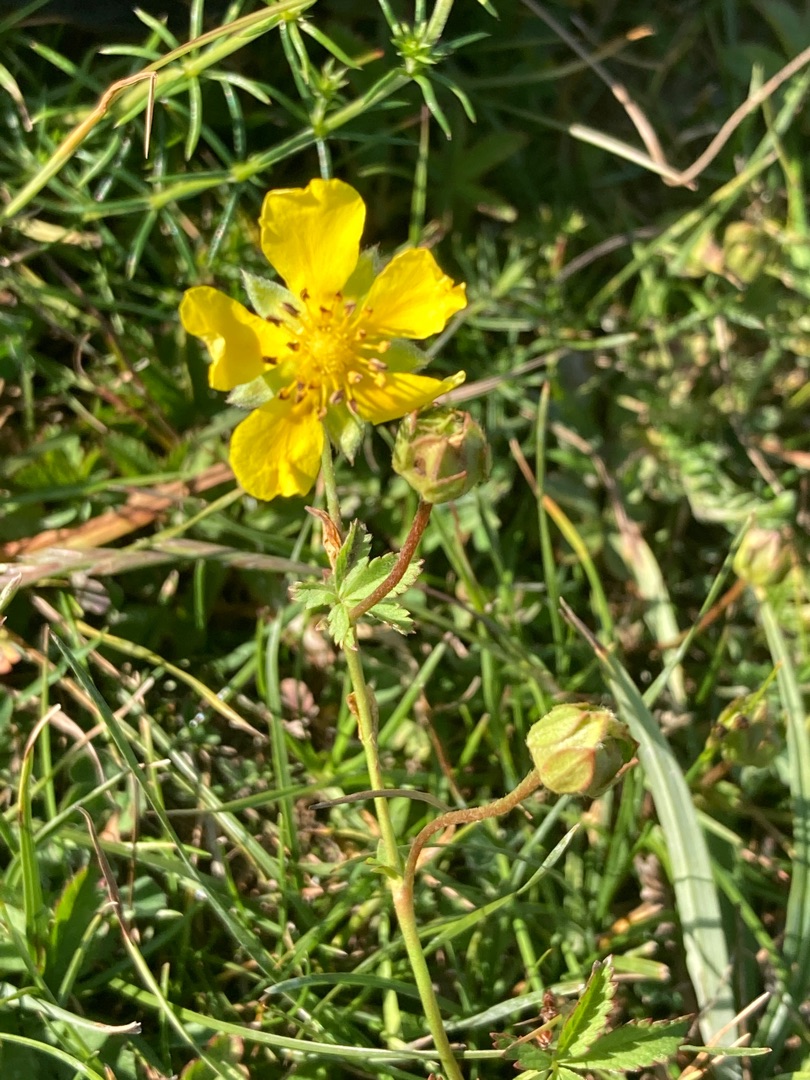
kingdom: Plantae
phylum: Tracheophyta
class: Magnoliopsida
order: Rosales
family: Rosaceae
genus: Potentilla
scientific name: Potentilla reptans
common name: Krybende potentil
